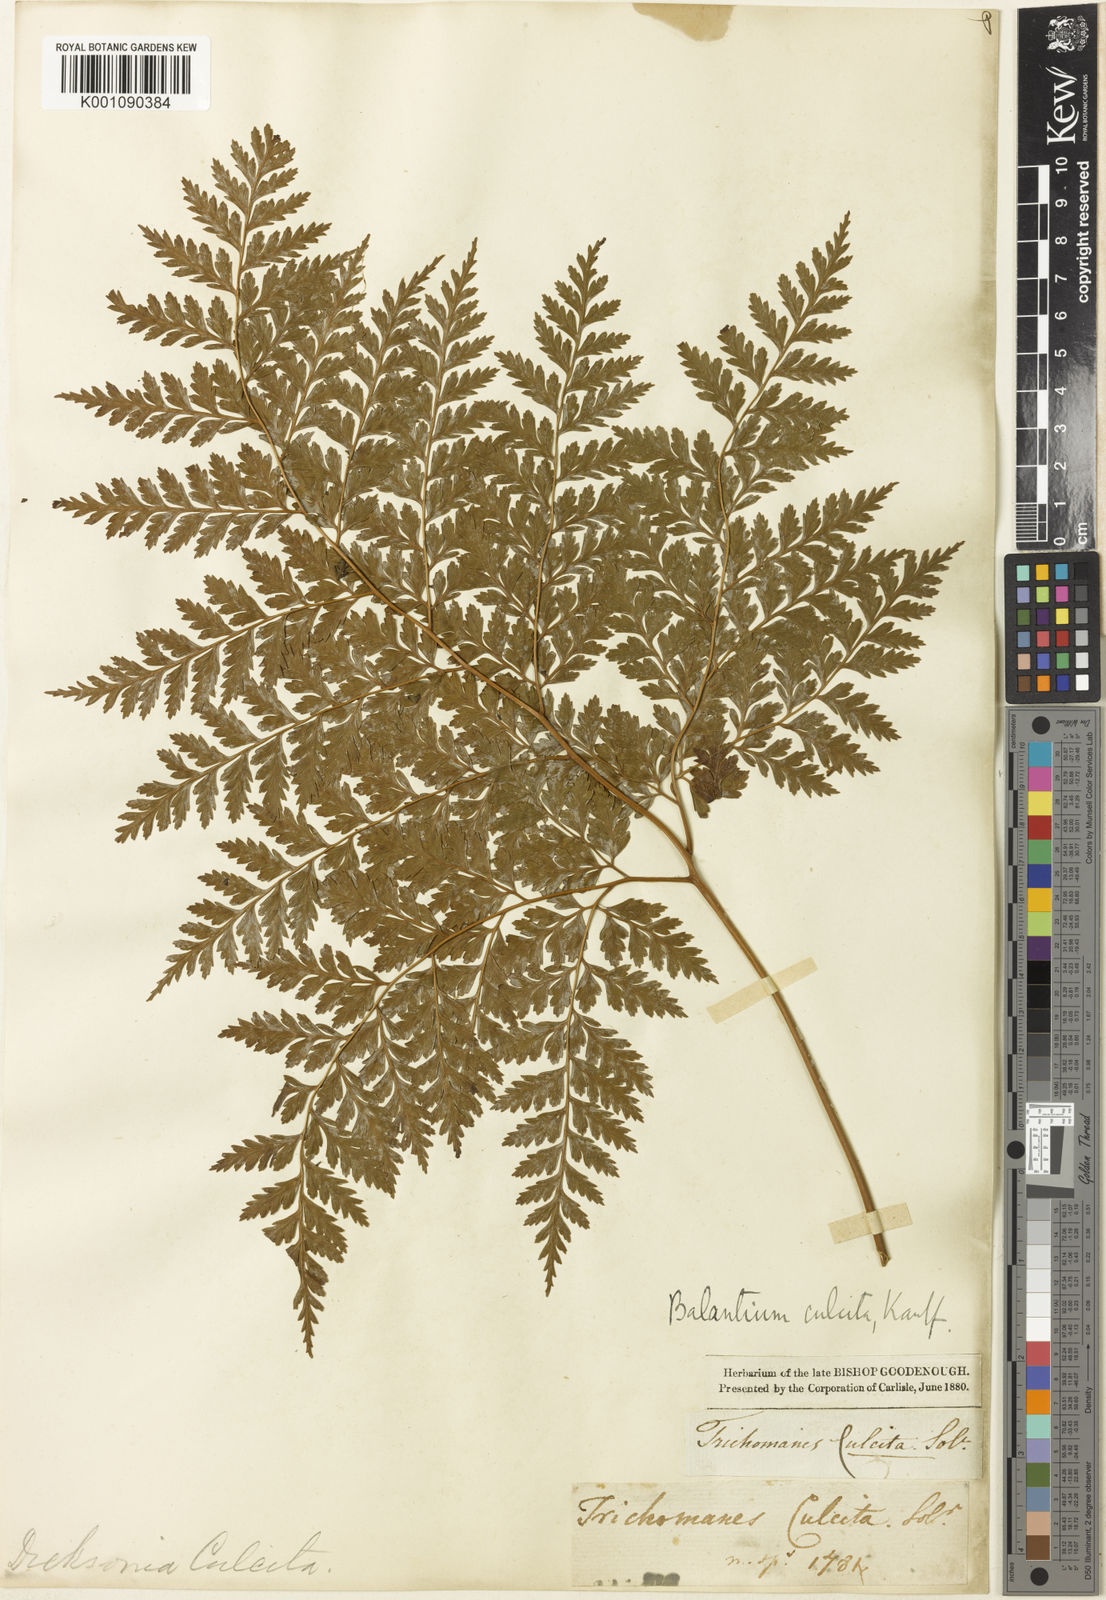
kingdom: Plantae
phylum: Tracheophyta
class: Polypodiopsida
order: Cyatheales
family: Culcitaceae
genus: Culcita
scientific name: Culcita macrocarpa
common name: Woolly tree fern
